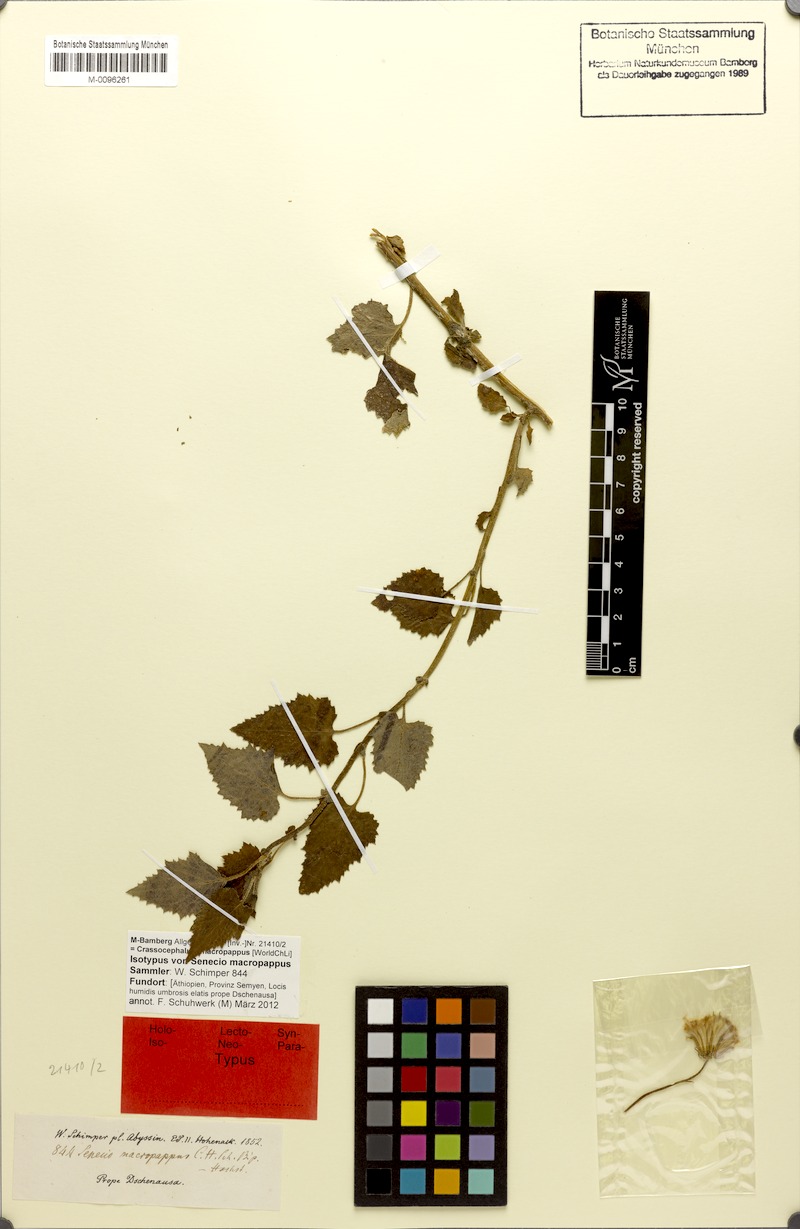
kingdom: Plantae
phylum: Tracheophyta
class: Magnoliopsida
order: Asterales
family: Asteraceae
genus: Crassocephalum
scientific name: Crassocephalum macropappus
